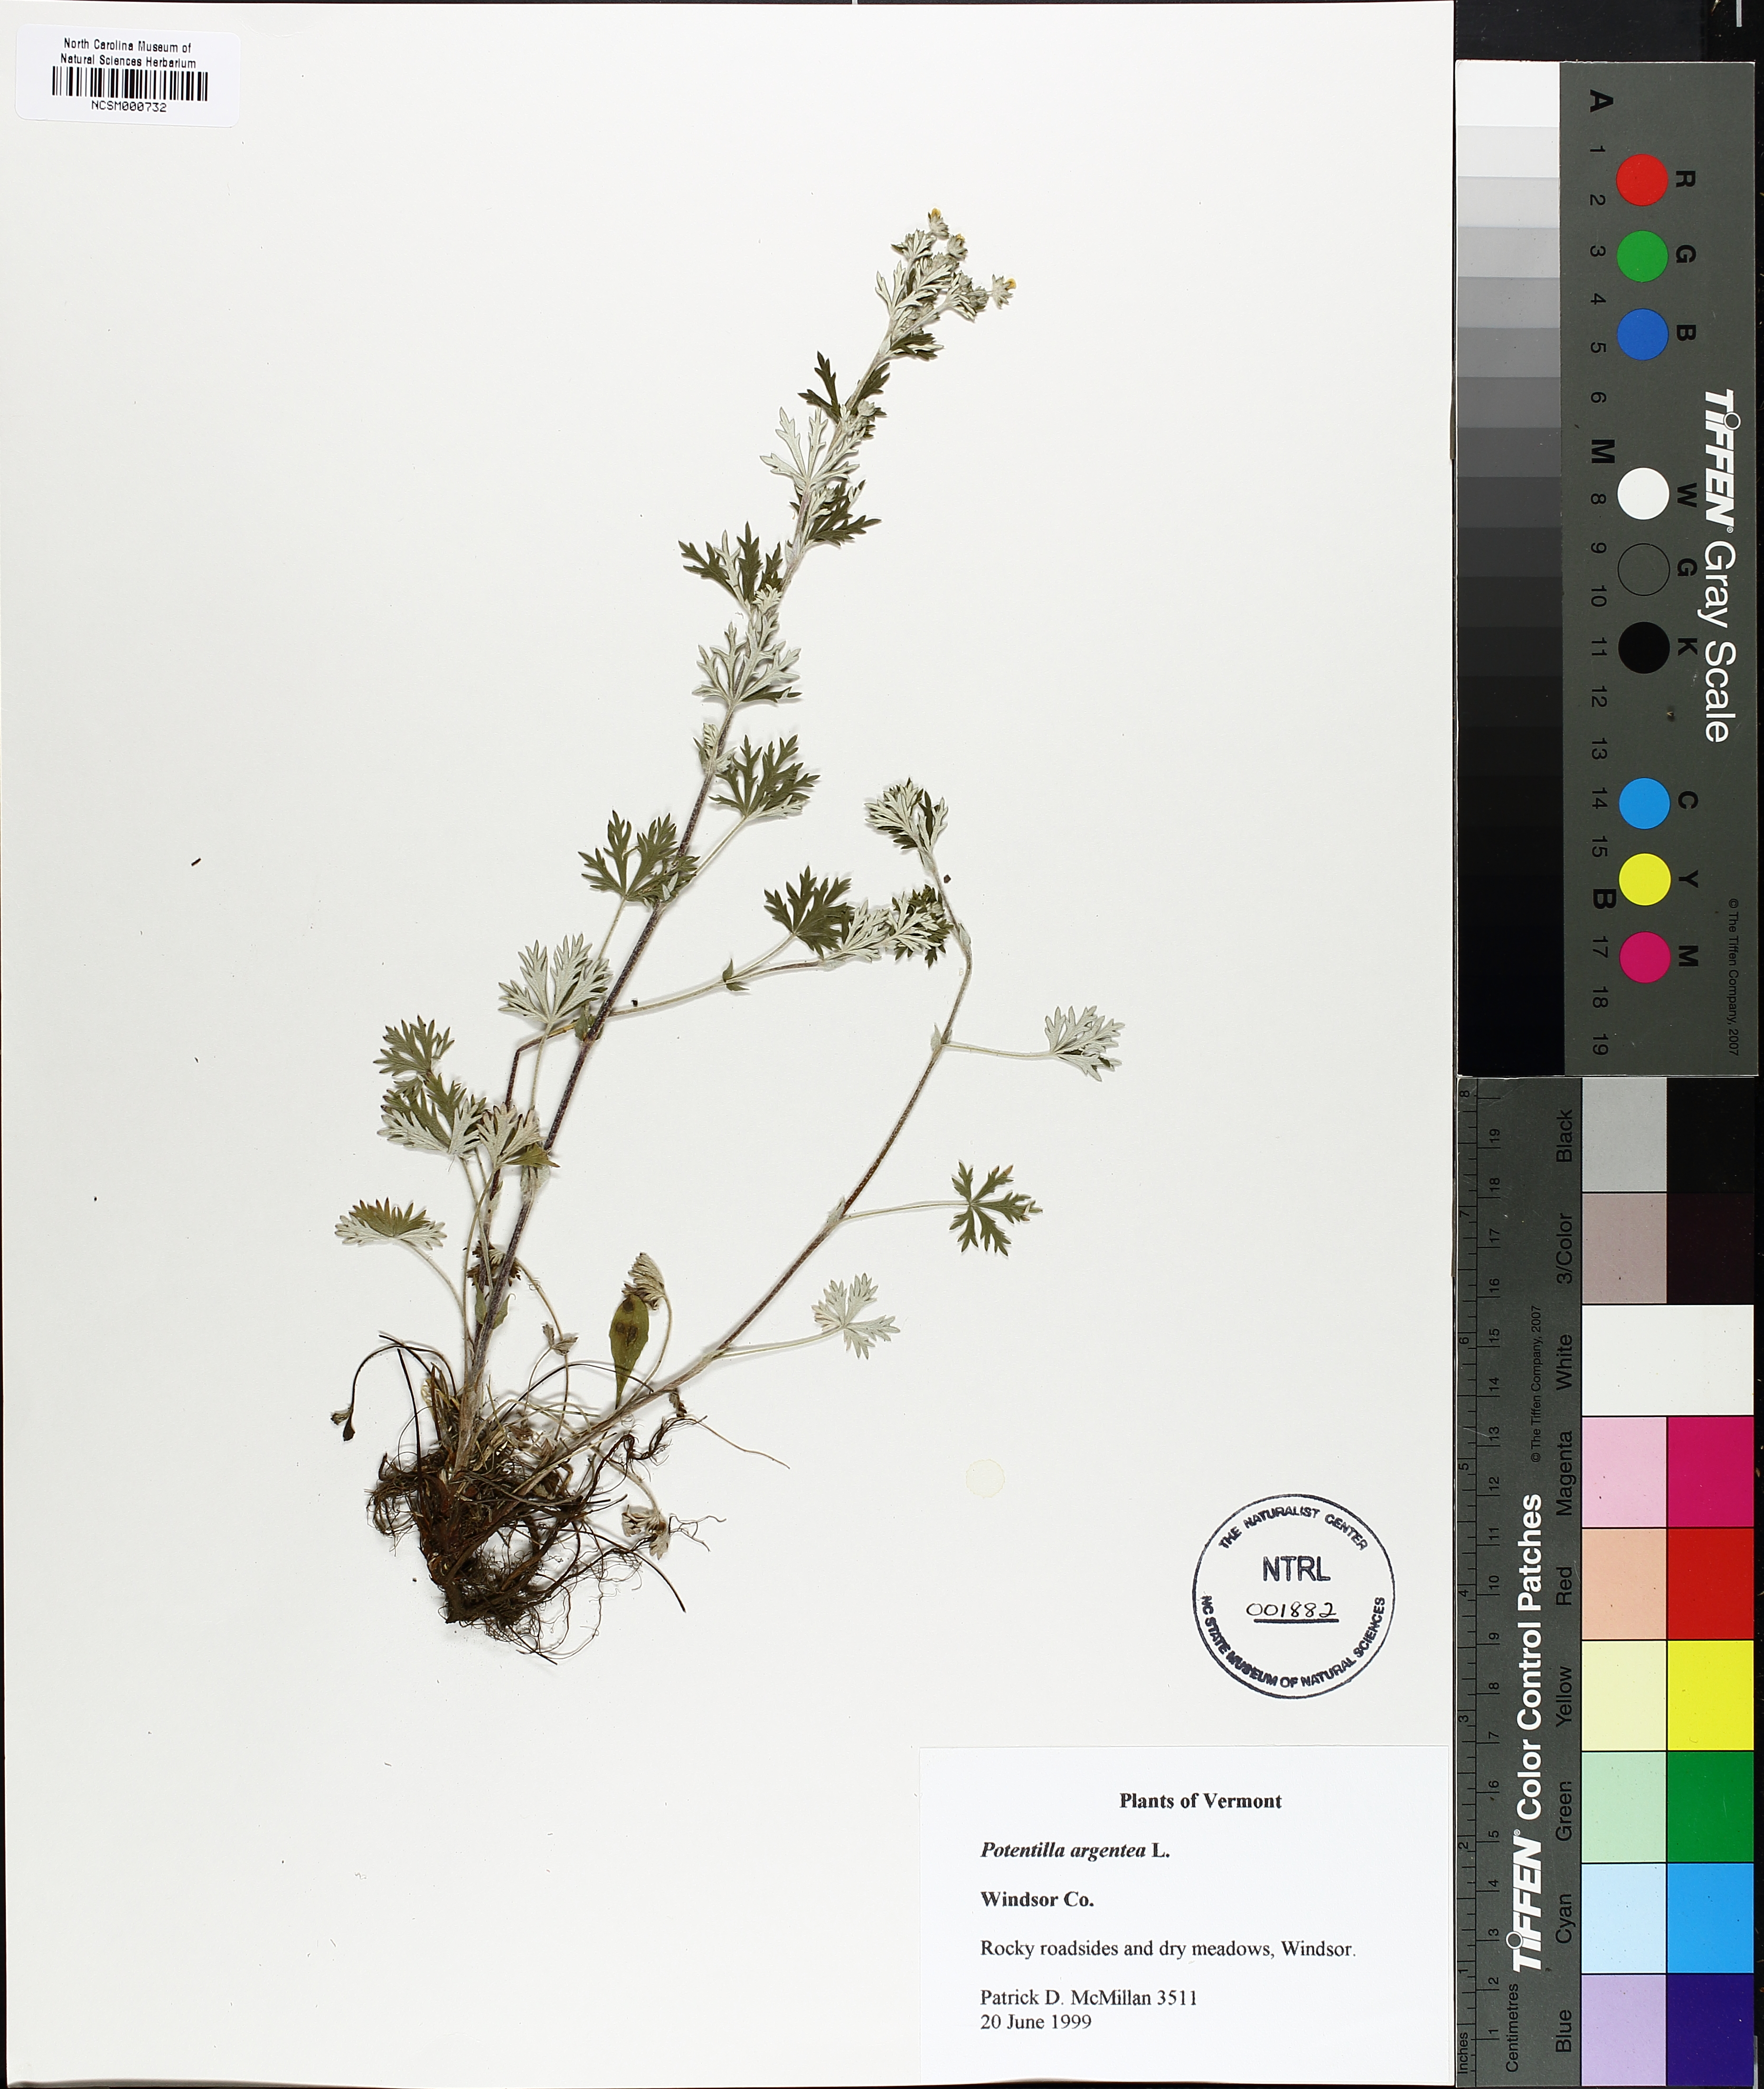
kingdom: Plantae
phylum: Tracheophyta
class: Magnoliopsida
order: Rosales
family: Rosaceae
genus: Potentilla
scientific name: Potentilla argentea
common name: Hoary cinquefoil
